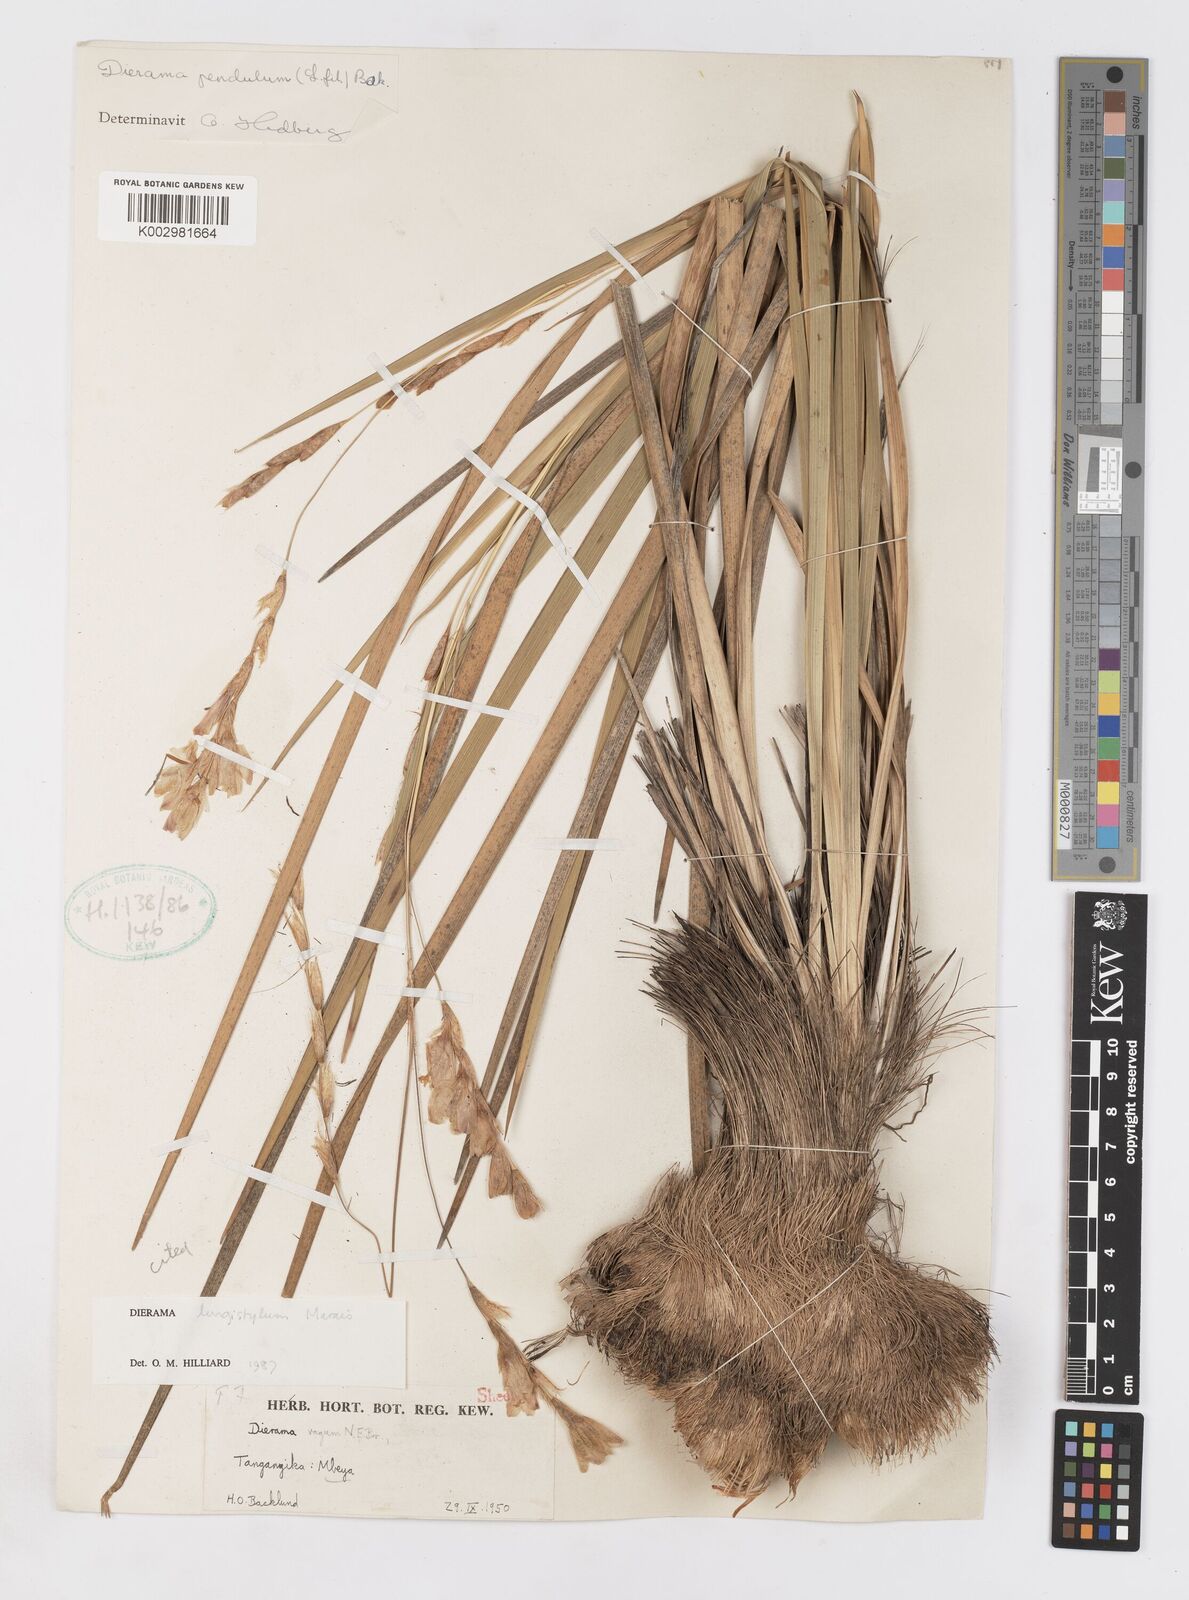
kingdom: Plantae
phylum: Tracheophyta
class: Liliopsida
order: Asparagales
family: Iridaceae
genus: Dierama
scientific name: Dierama longistylum
